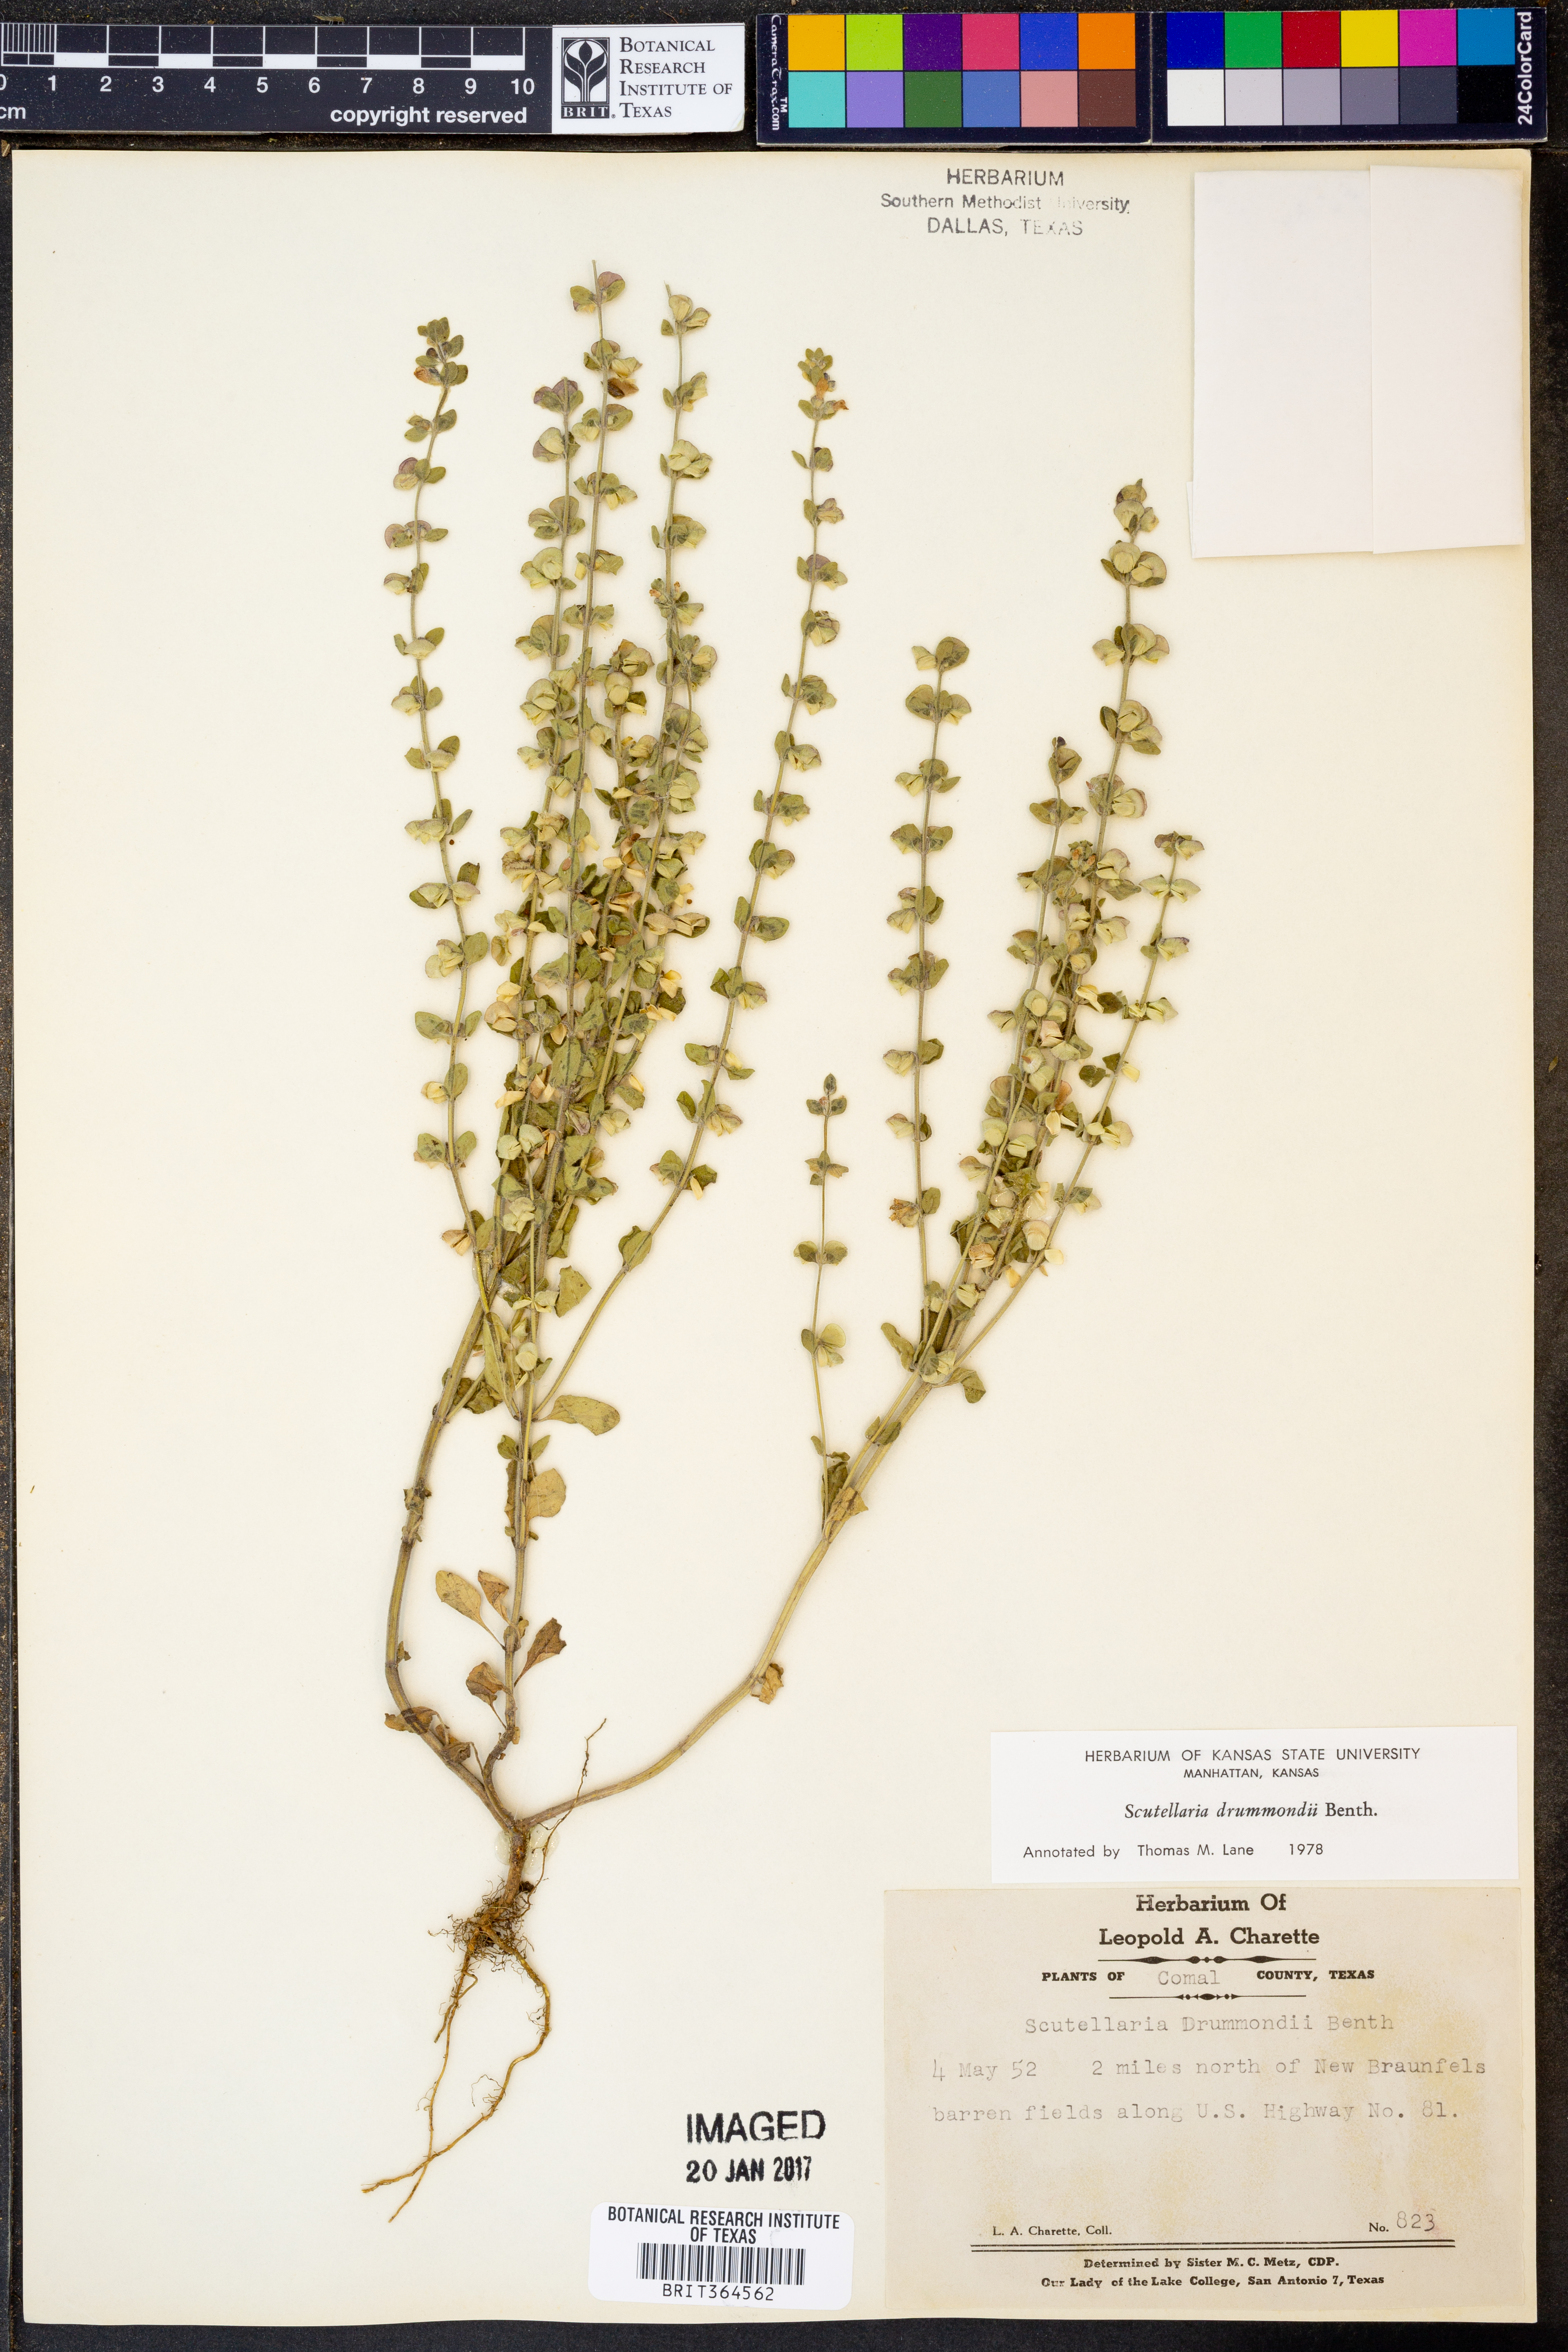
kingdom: Plantae
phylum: Tracheophyta
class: Magnoliopsida
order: Lamiales
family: Lamiaceae
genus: Scutellaria
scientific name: Scutellaria drummondii
